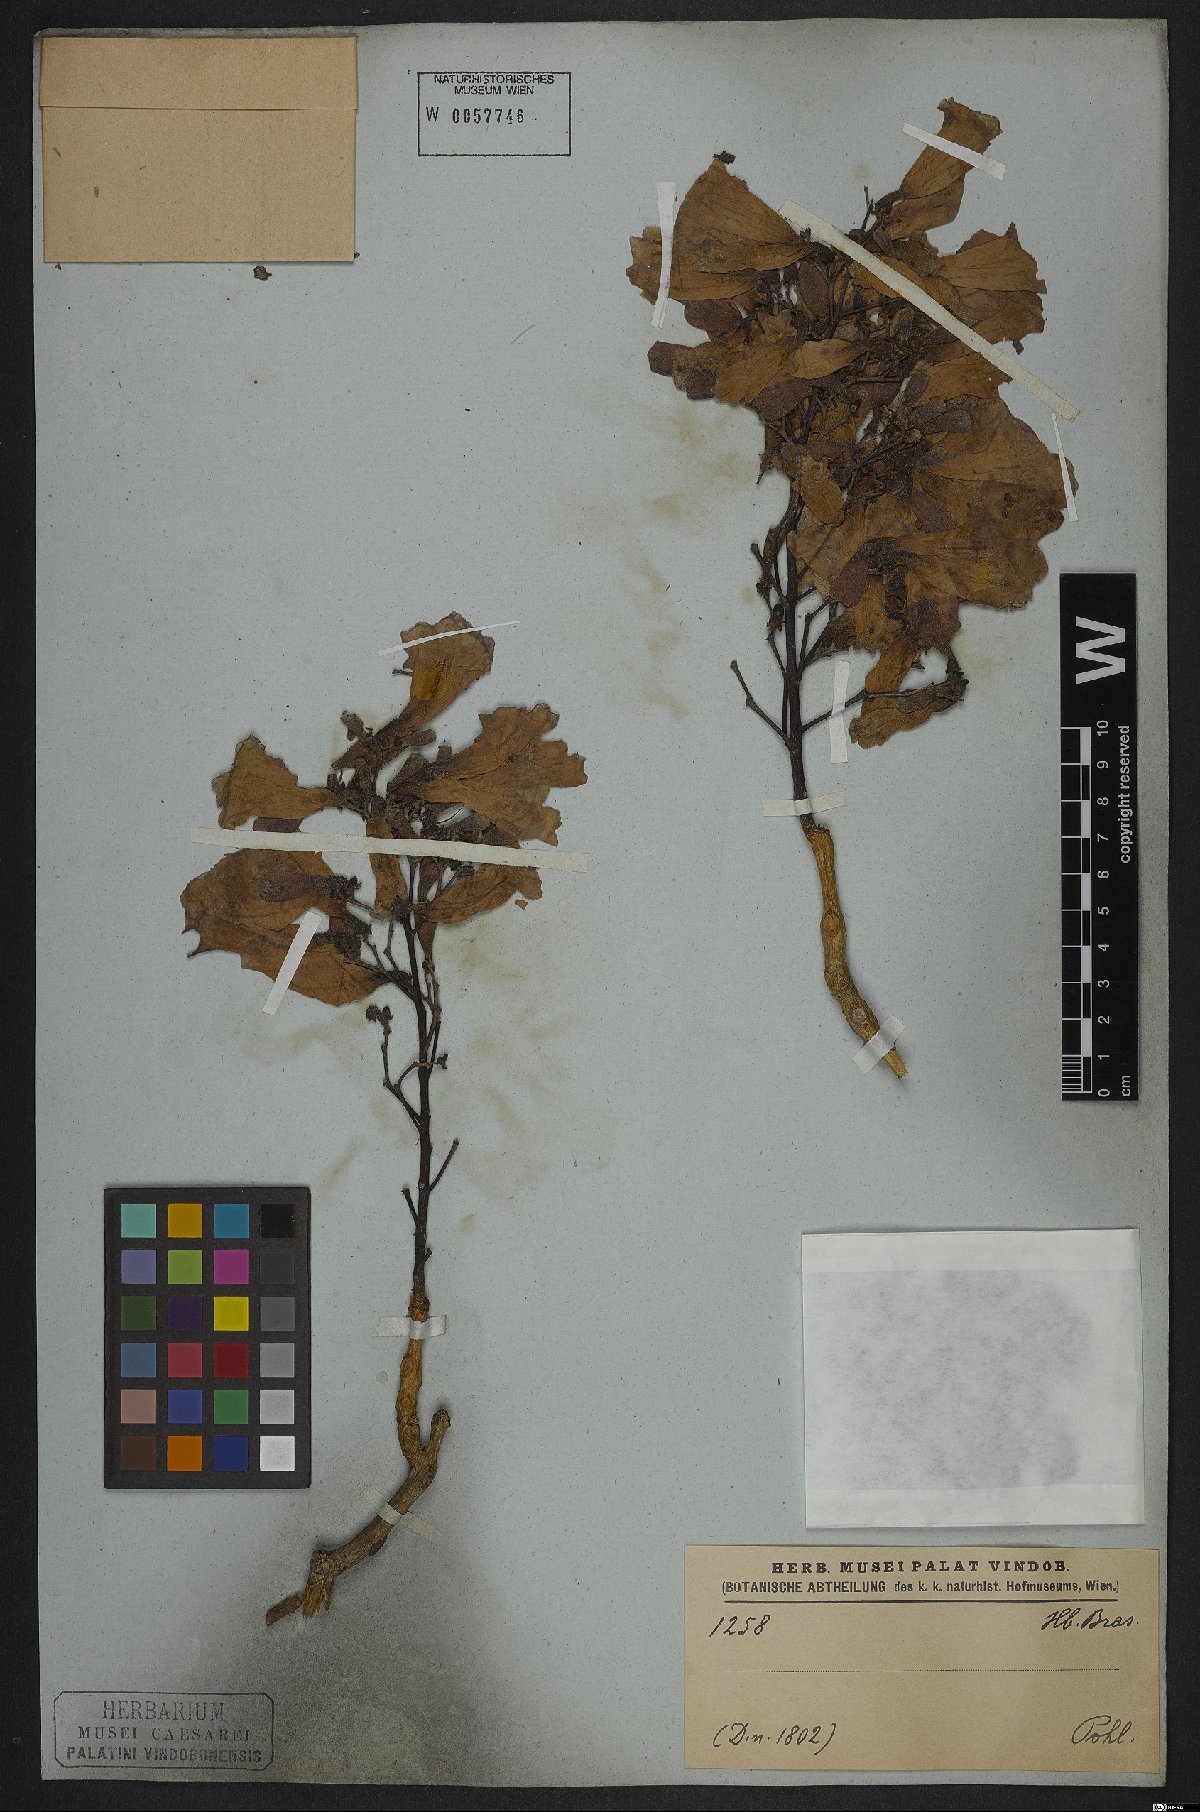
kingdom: Plantae
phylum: Tracheophyta
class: Magnoliopsida
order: Lamiales
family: Bignoniaceae
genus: Jacaranda
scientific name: Jacaranda brasiliana
